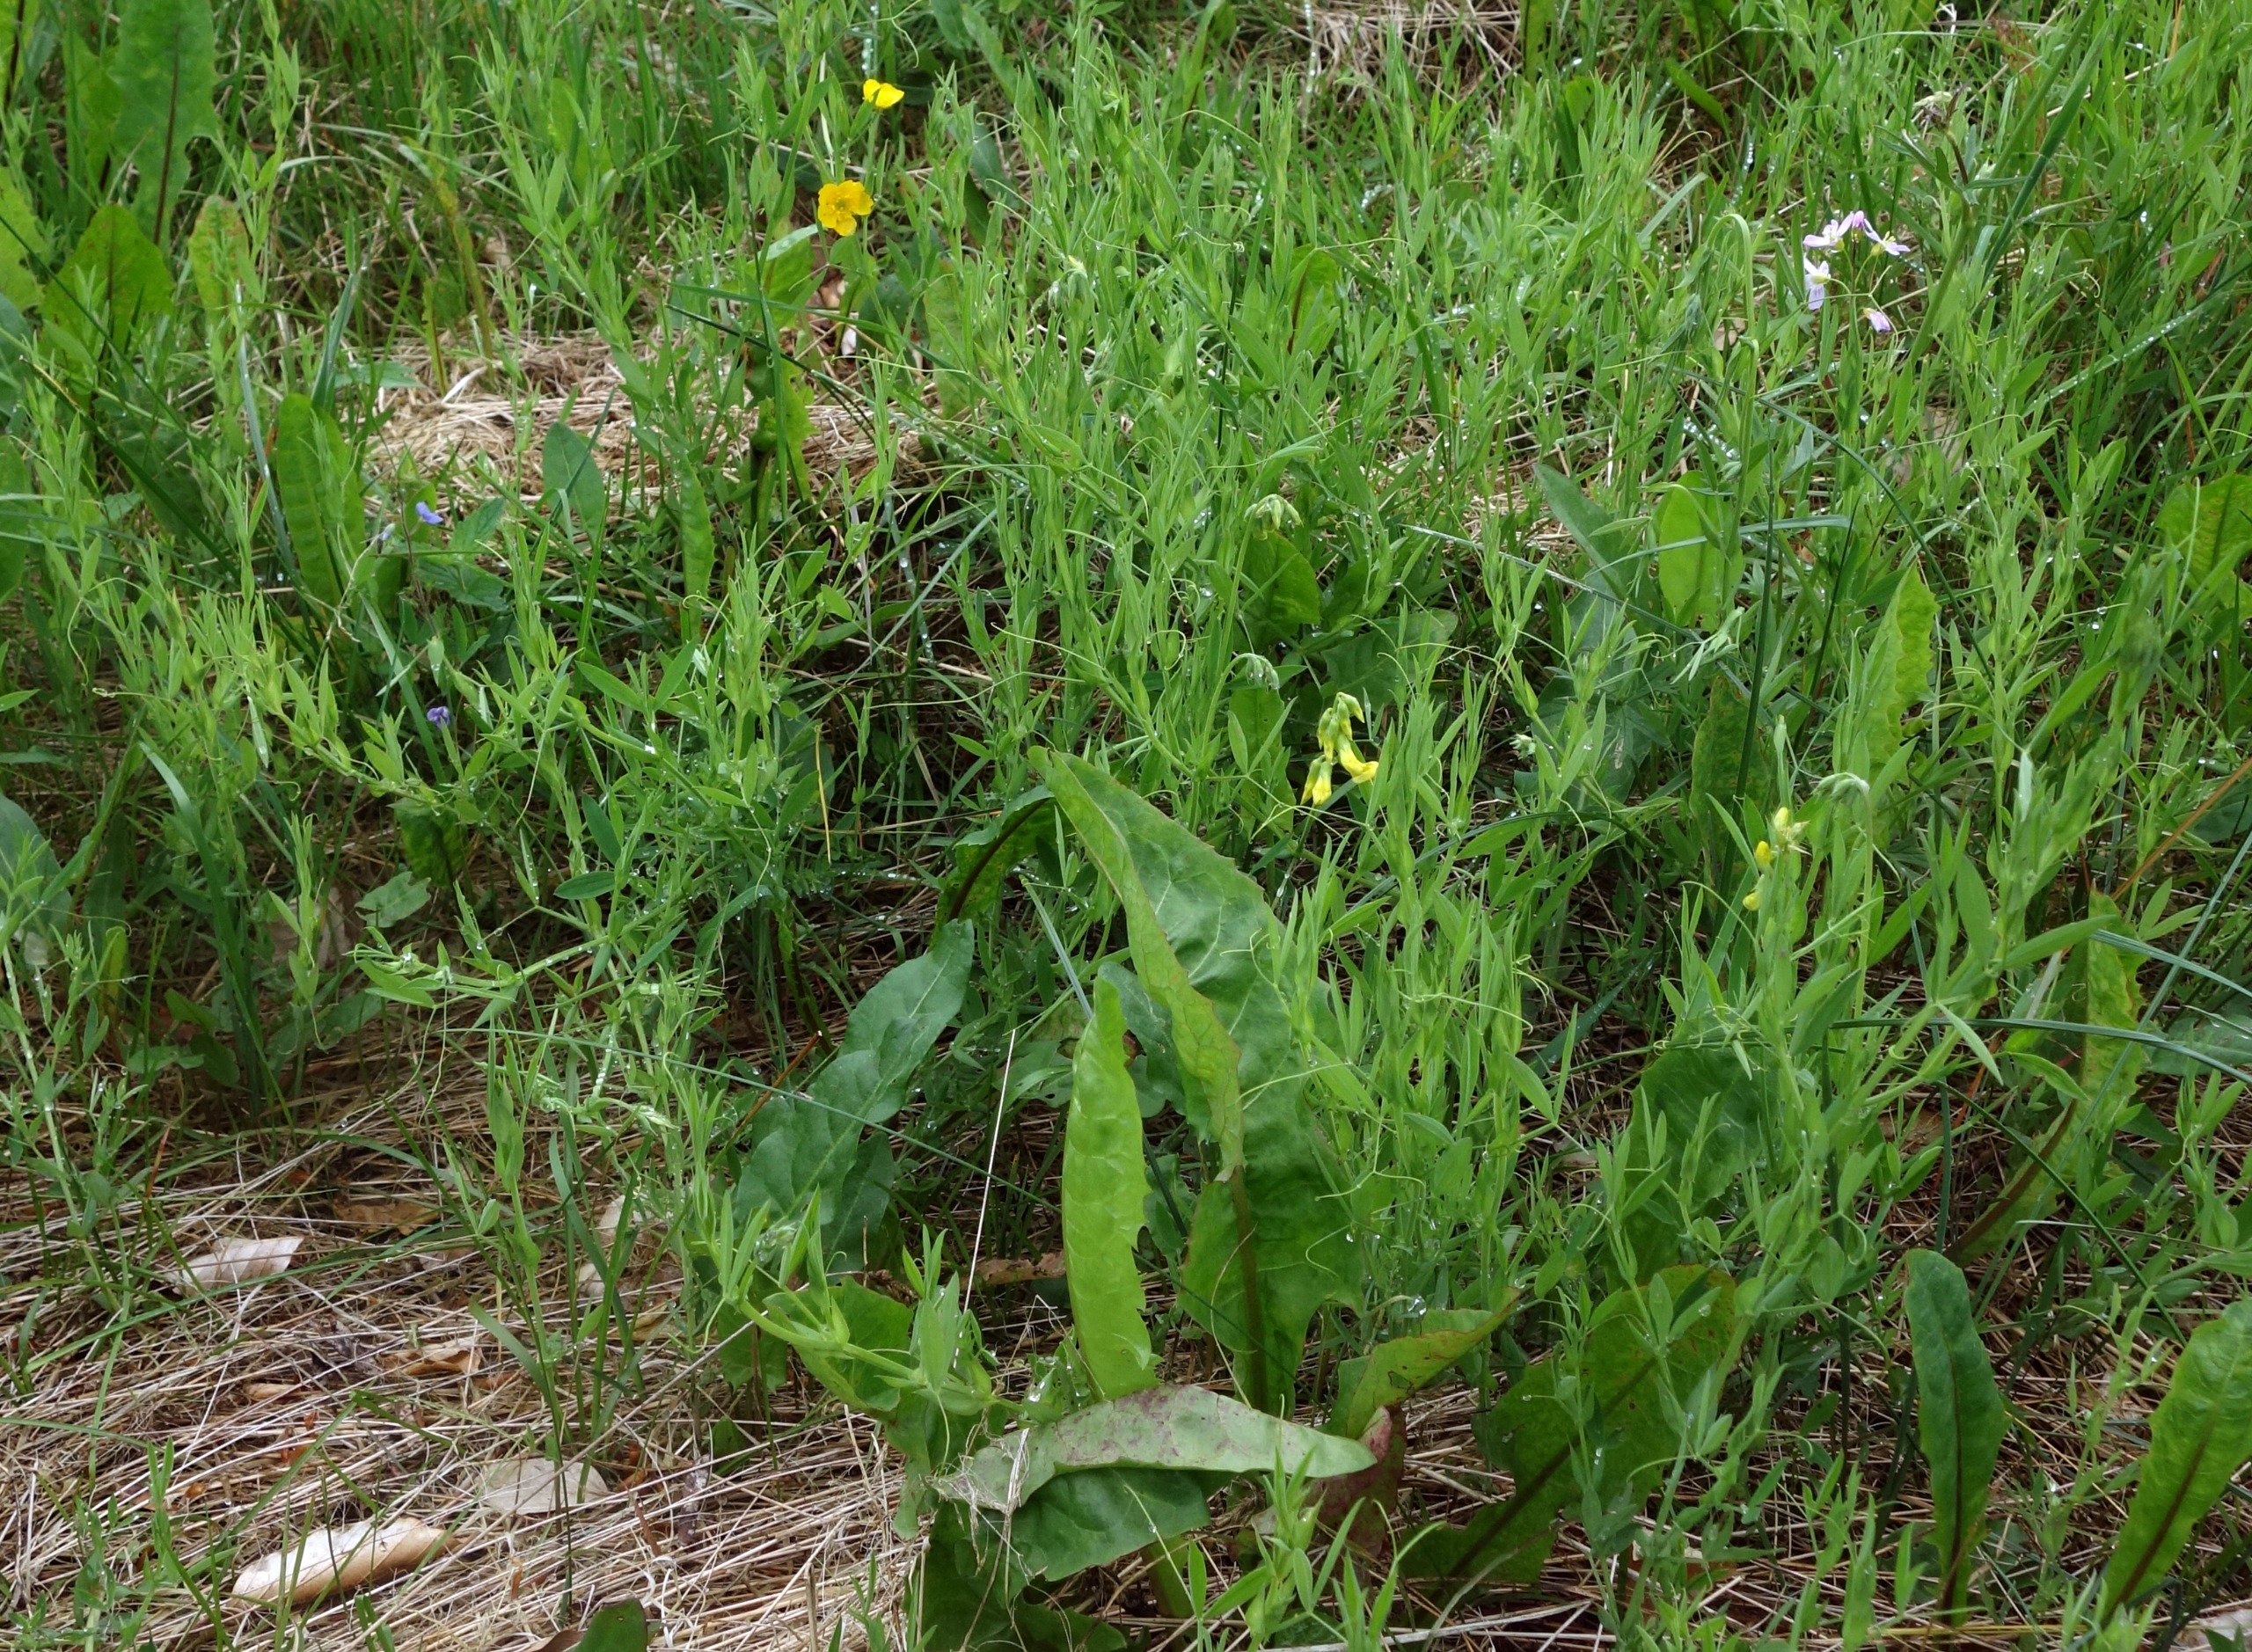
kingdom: Plantae
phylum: Tracheophyta
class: Magnoliopsida
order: Fabales
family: Fabaceae
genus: Lathyrus
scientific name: Lathyrus pratensis
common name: Gul fladbælg
